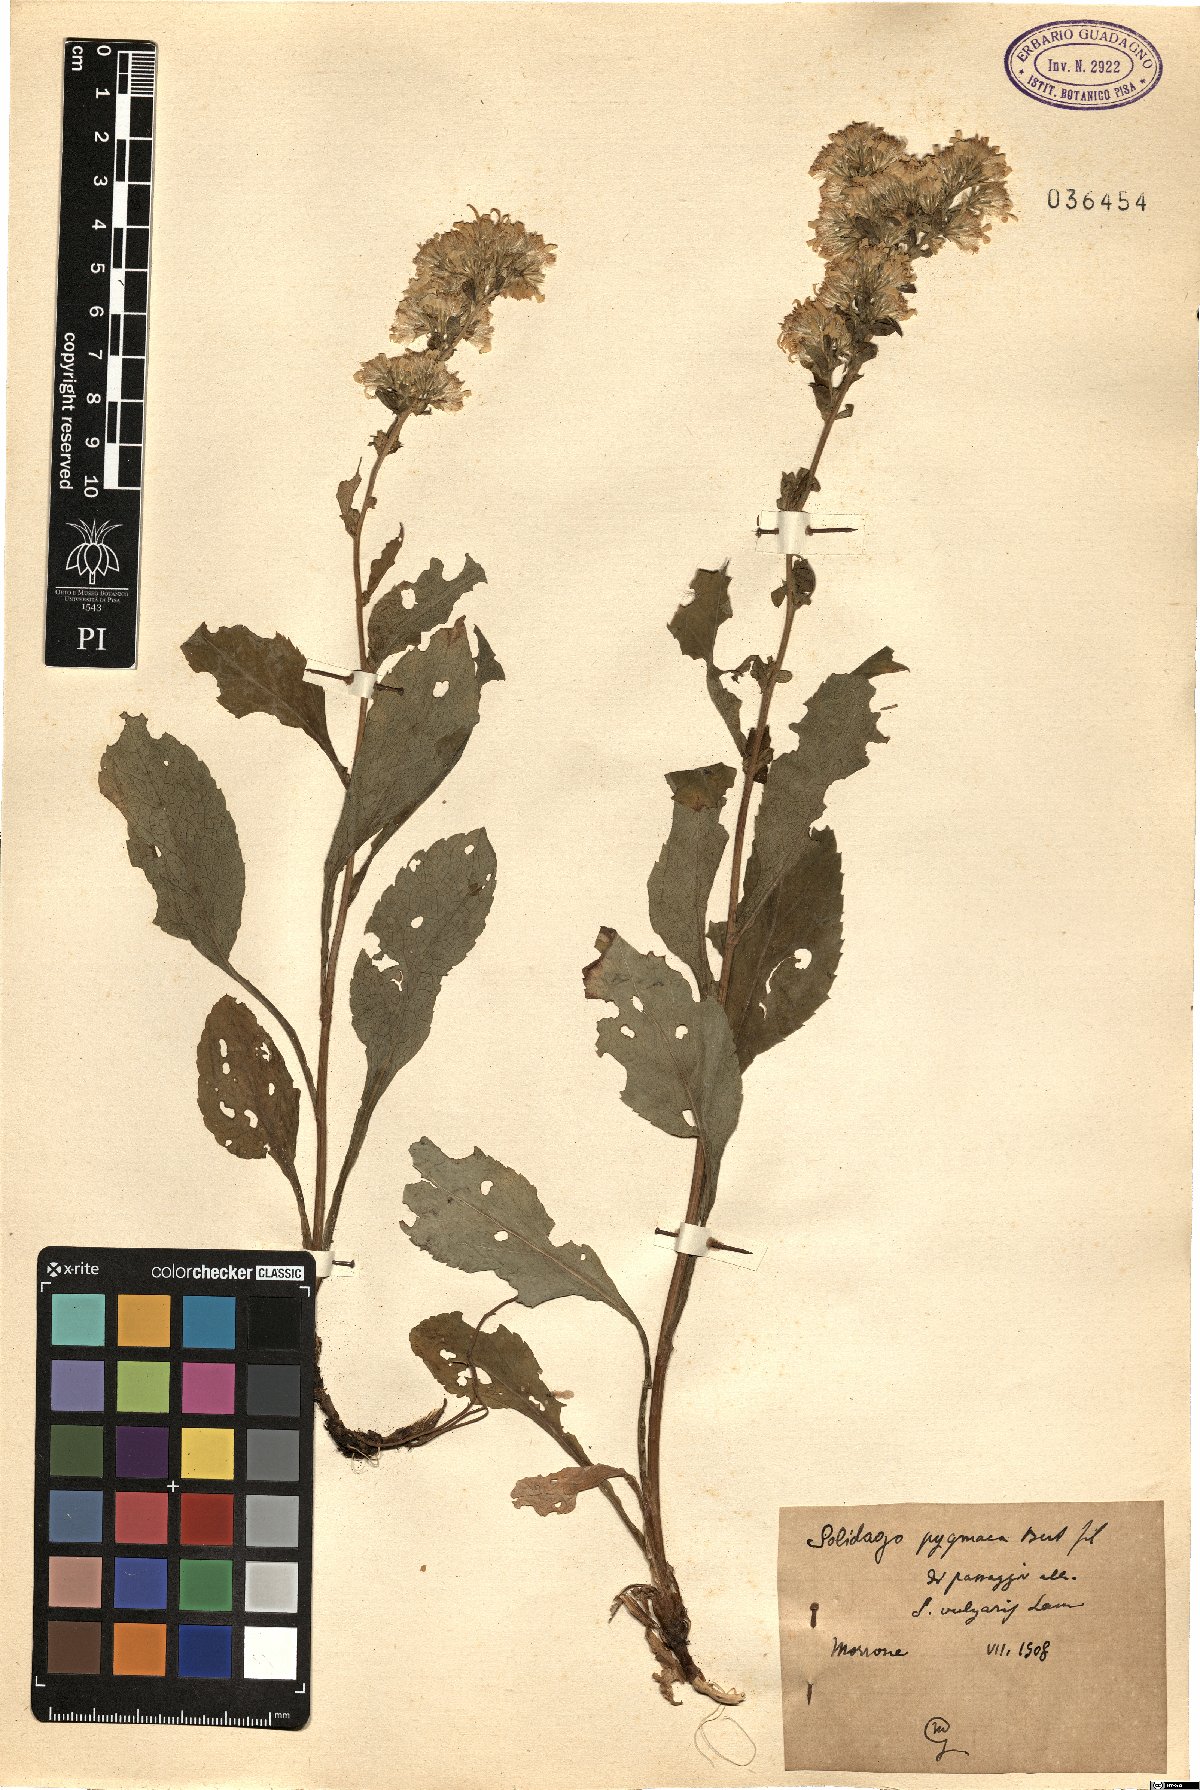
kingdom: Plantae
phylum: Tracheophyta
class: Magnoliopsida
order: Asterales
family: Asteraceae
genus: Solidago
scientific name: Solidago virgaurea
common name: Goldenrod
